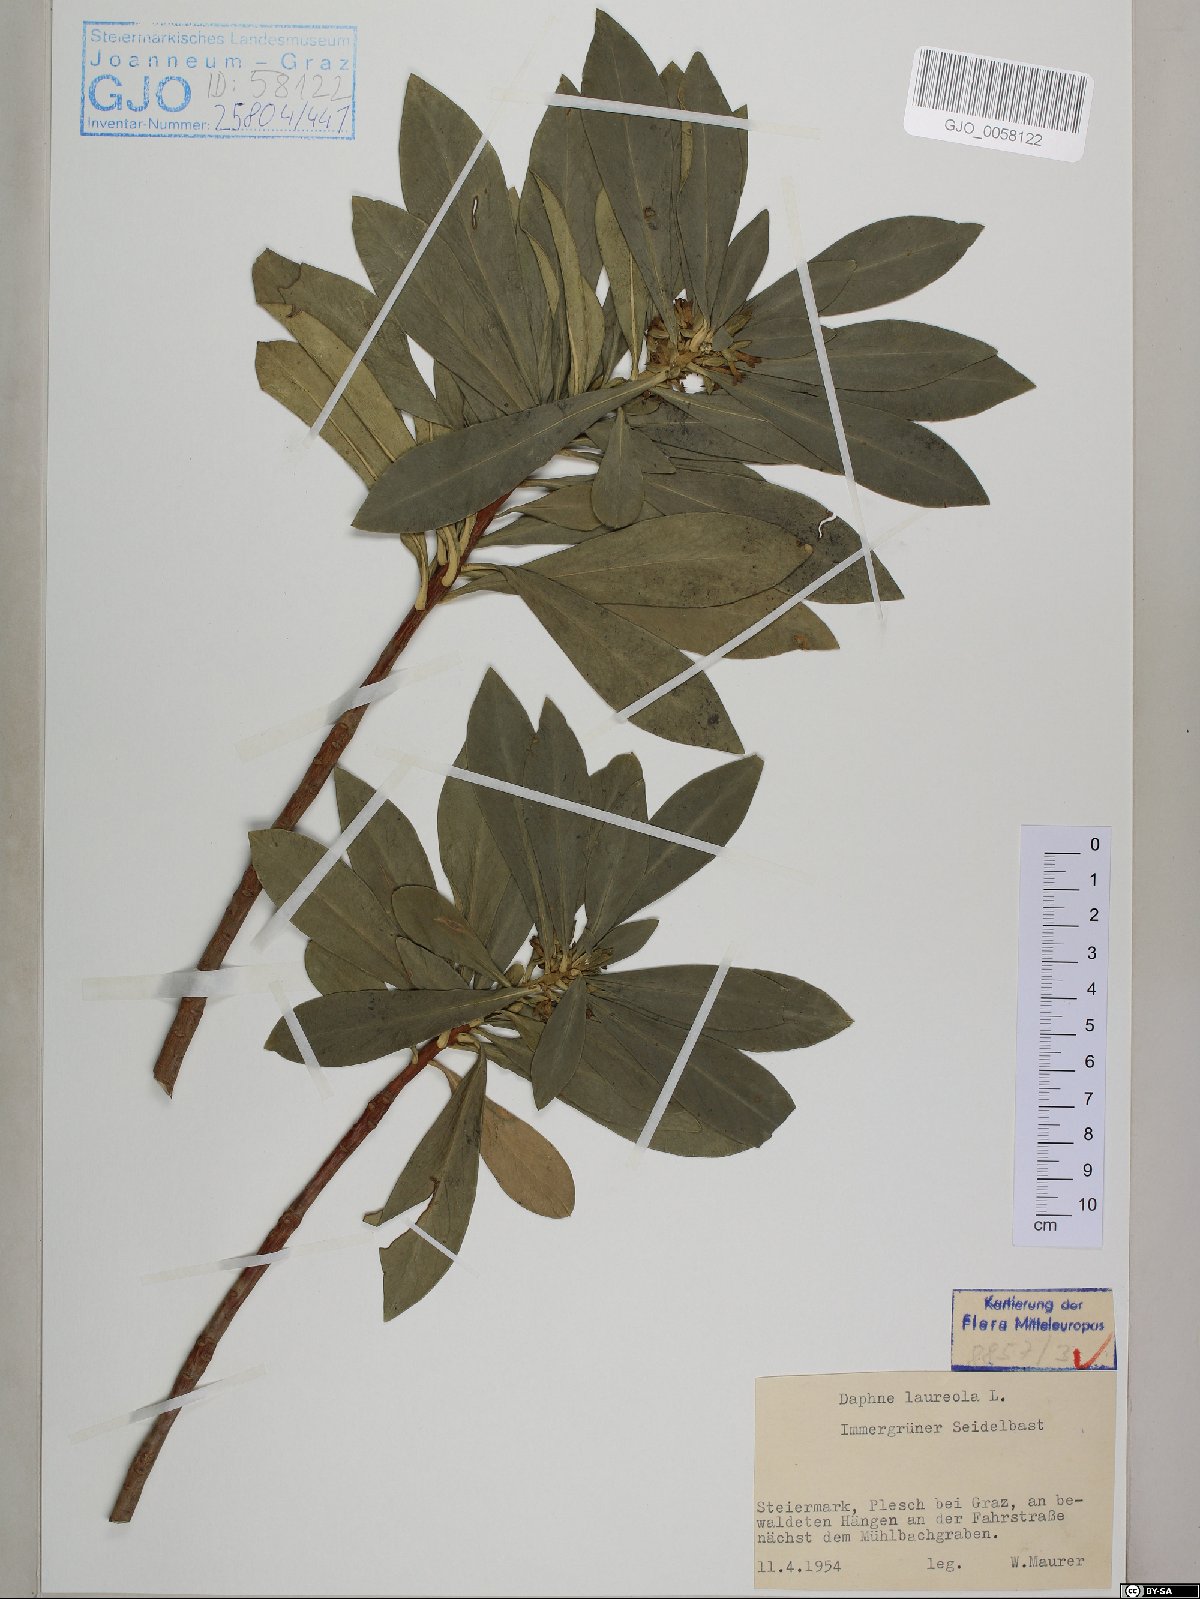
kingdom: Plantae
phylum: Tracheophyta
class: Magnoliopsida
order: Malvales
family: Thymelaeaceae
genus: Daphne
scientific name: Daphne laureola
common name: Spurge-laurel
